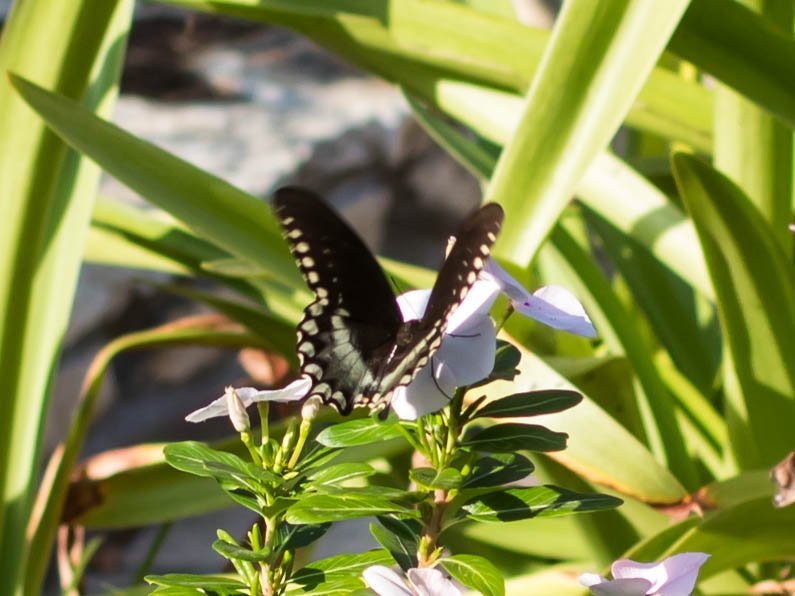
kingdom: Animalia
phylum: Arthropoda
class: Insecta
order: Lepidoptera
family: Papilionidae
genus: Pterourus
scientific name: Pterourus troilus
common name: Spicebush Swallowtail
